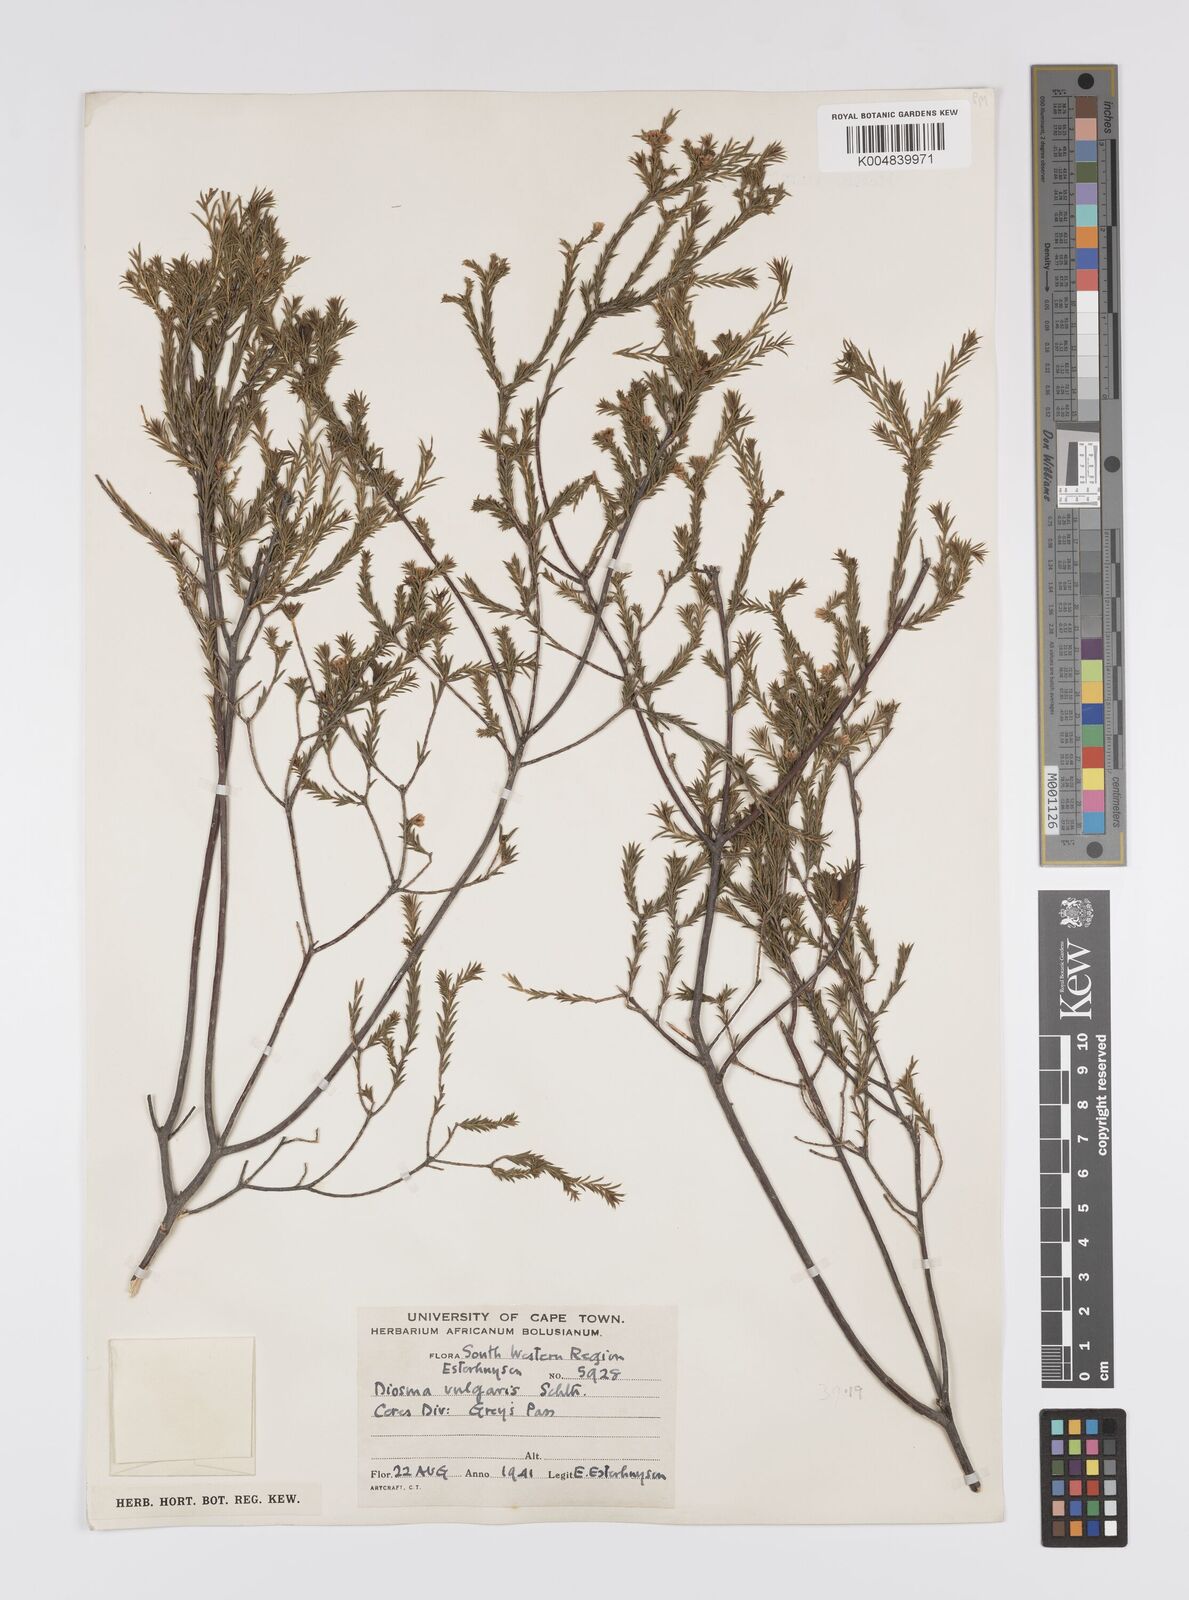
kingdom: Plantae
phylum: Tracheophyta
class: Magnoliopsida
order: Sapindales
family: Rutaceae
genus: Diosma
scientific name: Diosma acmaeophylla
